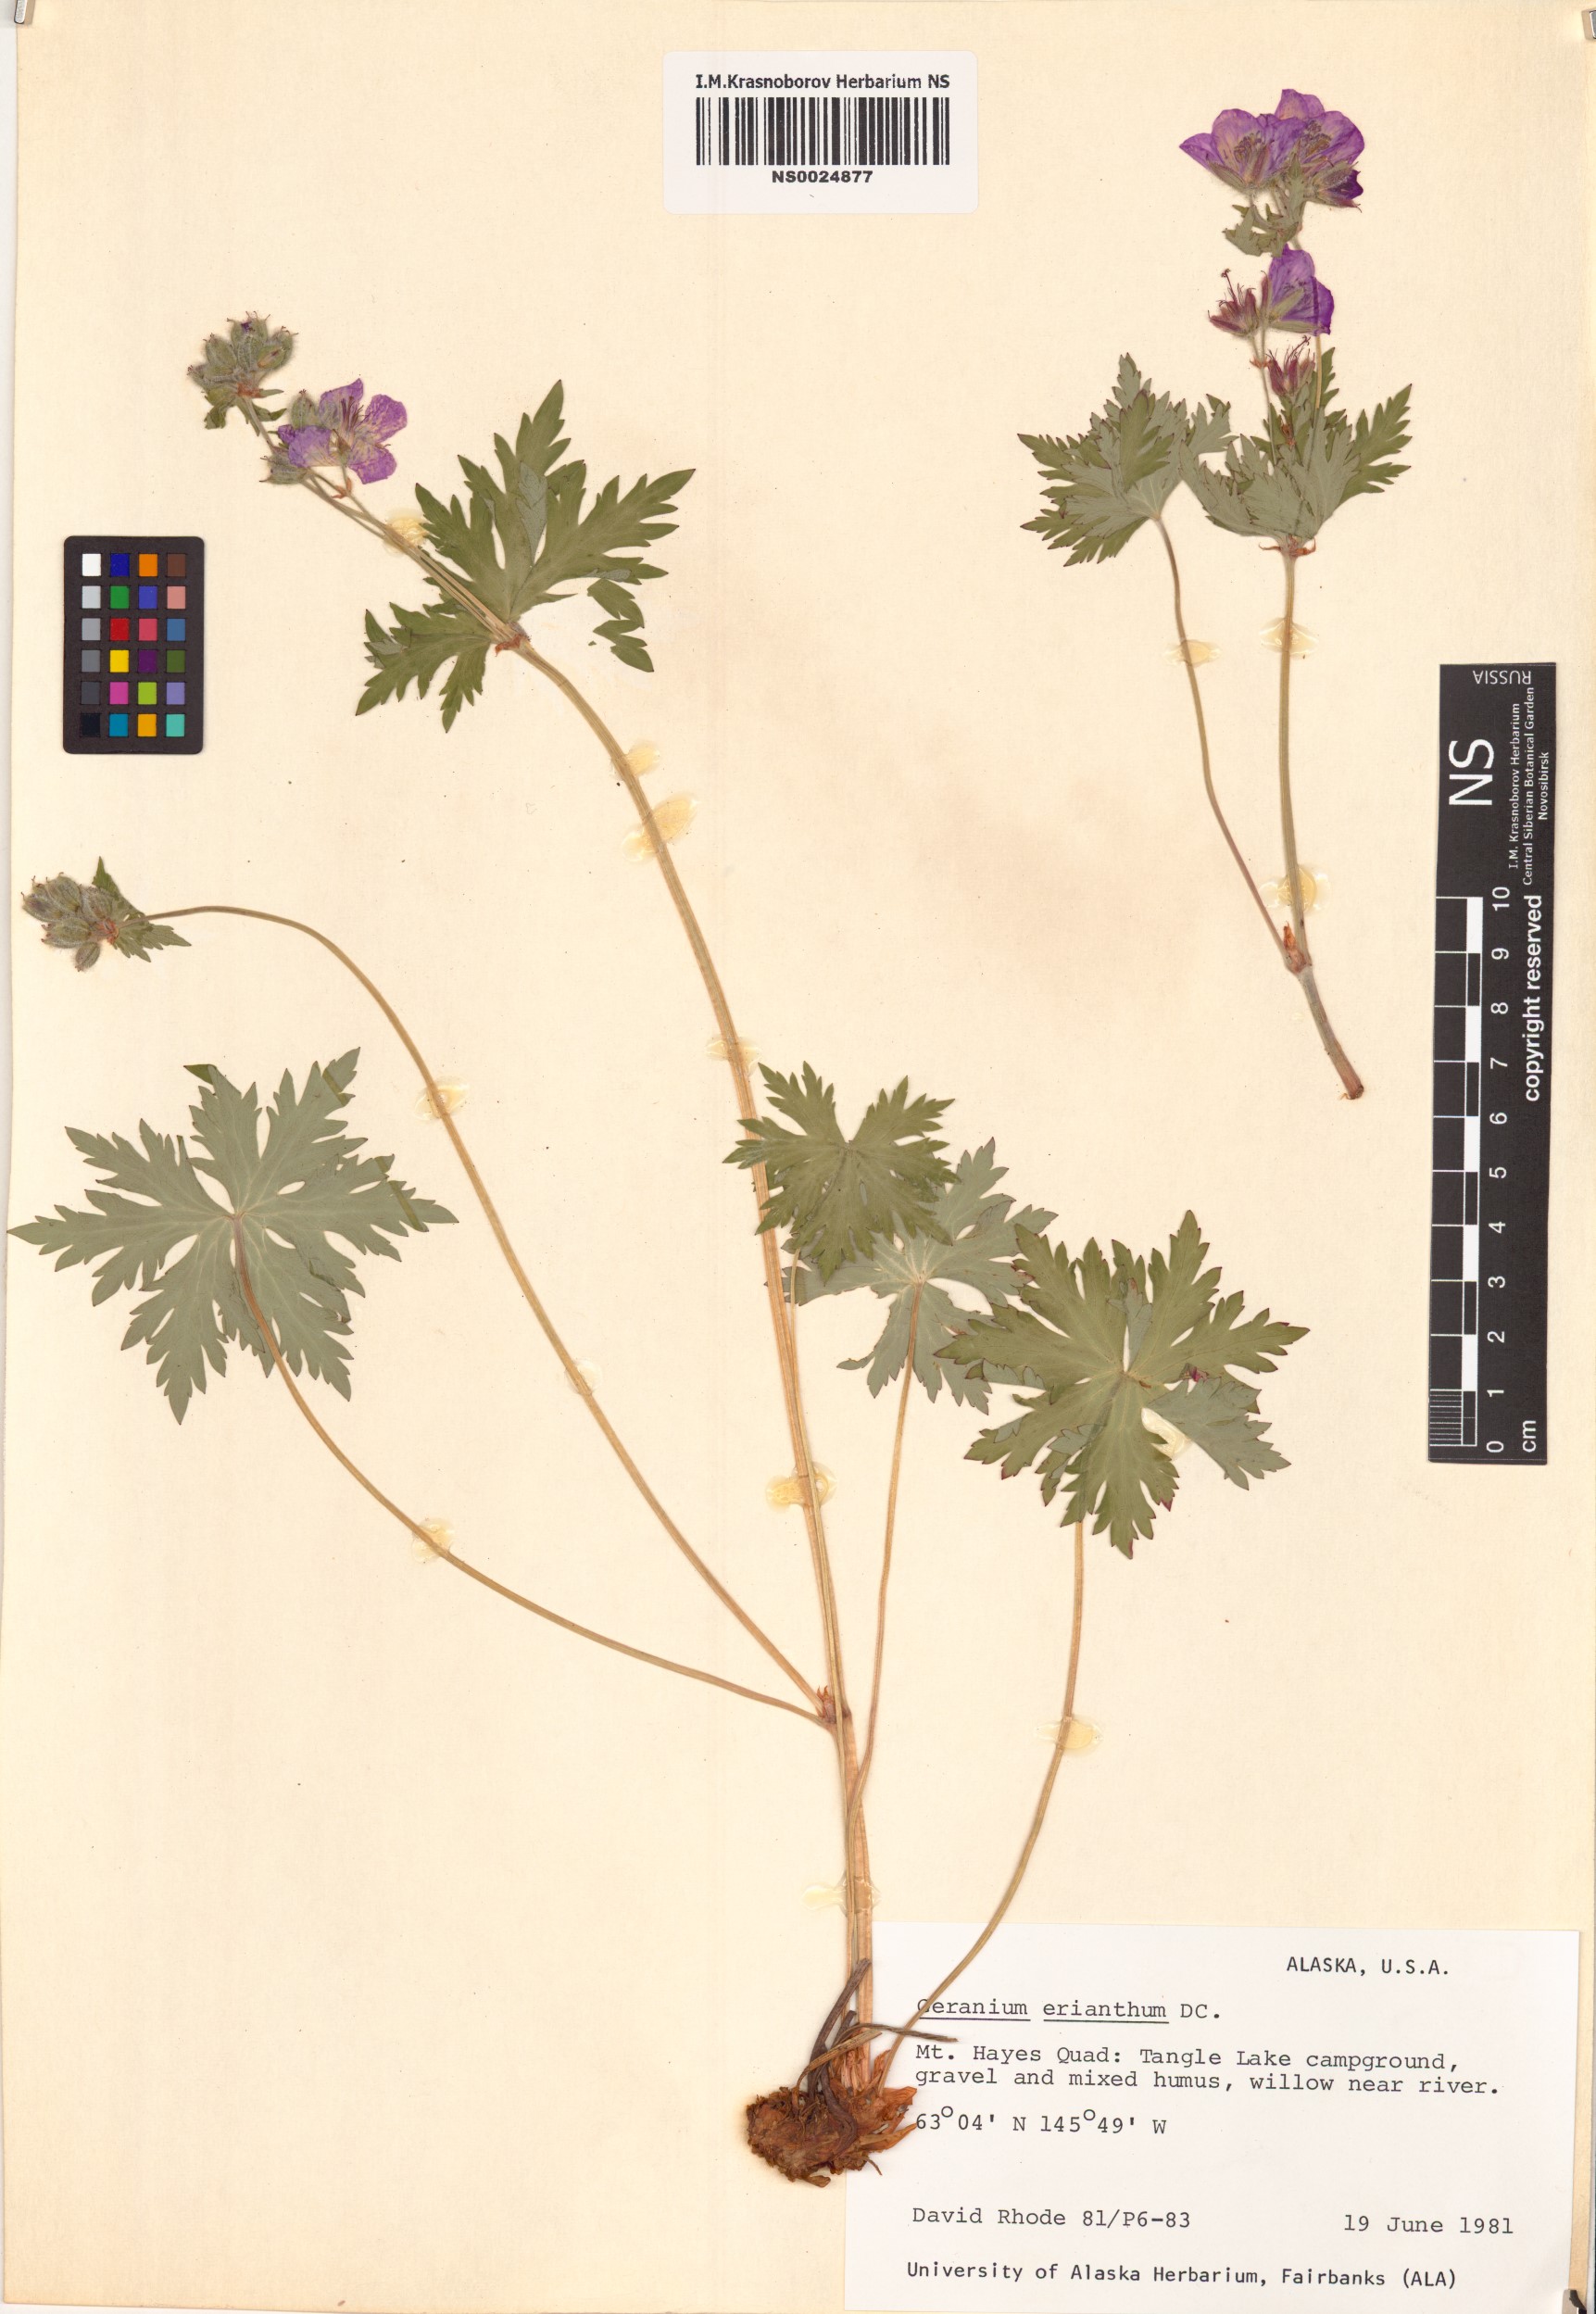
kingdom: Plantae
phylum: Tracheophyta
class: Magnoliopsida
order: Geraniales
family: Geraniaceae
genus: Geranium
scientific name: Geranium erianthum
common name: Northern crane's-bill
